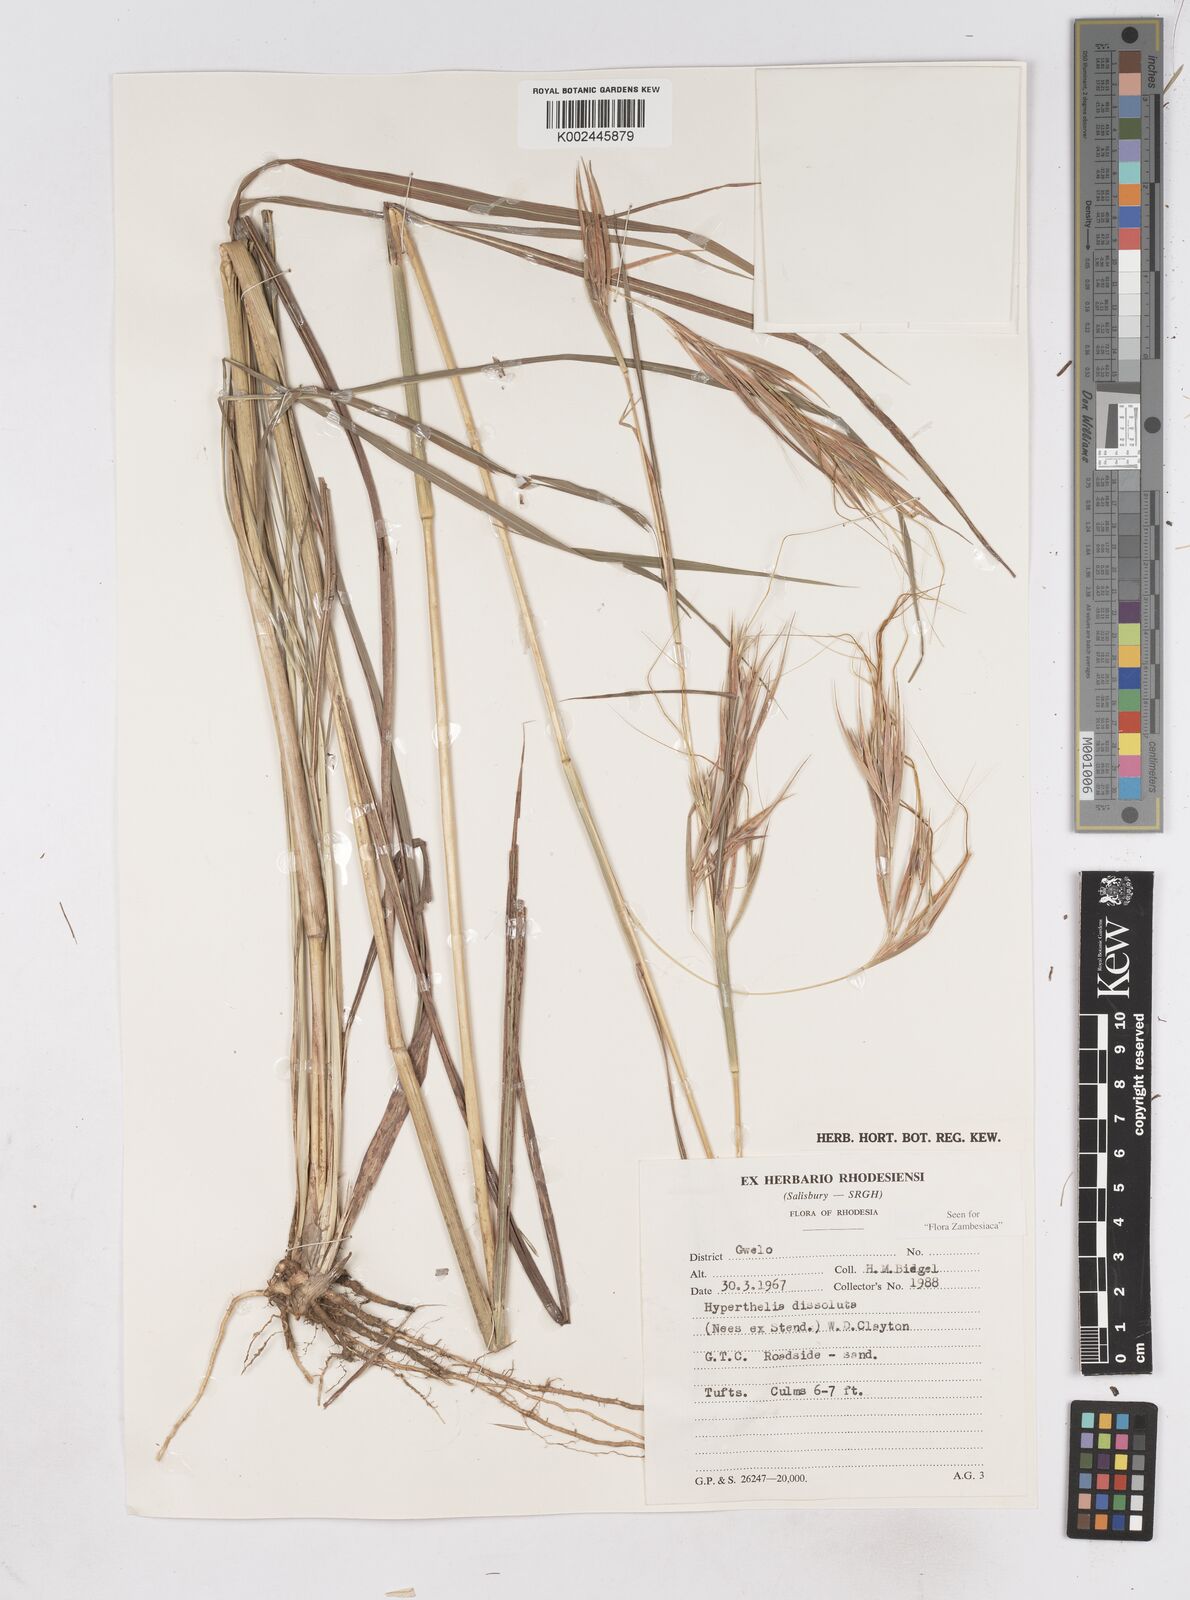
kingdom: Plantae
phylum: Tracheophyta
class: Liliopsida
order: Poales
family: Poaceae
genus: Hyperthelia
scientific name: Hyperthelia dissoluta
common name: Yellow thatching grass
